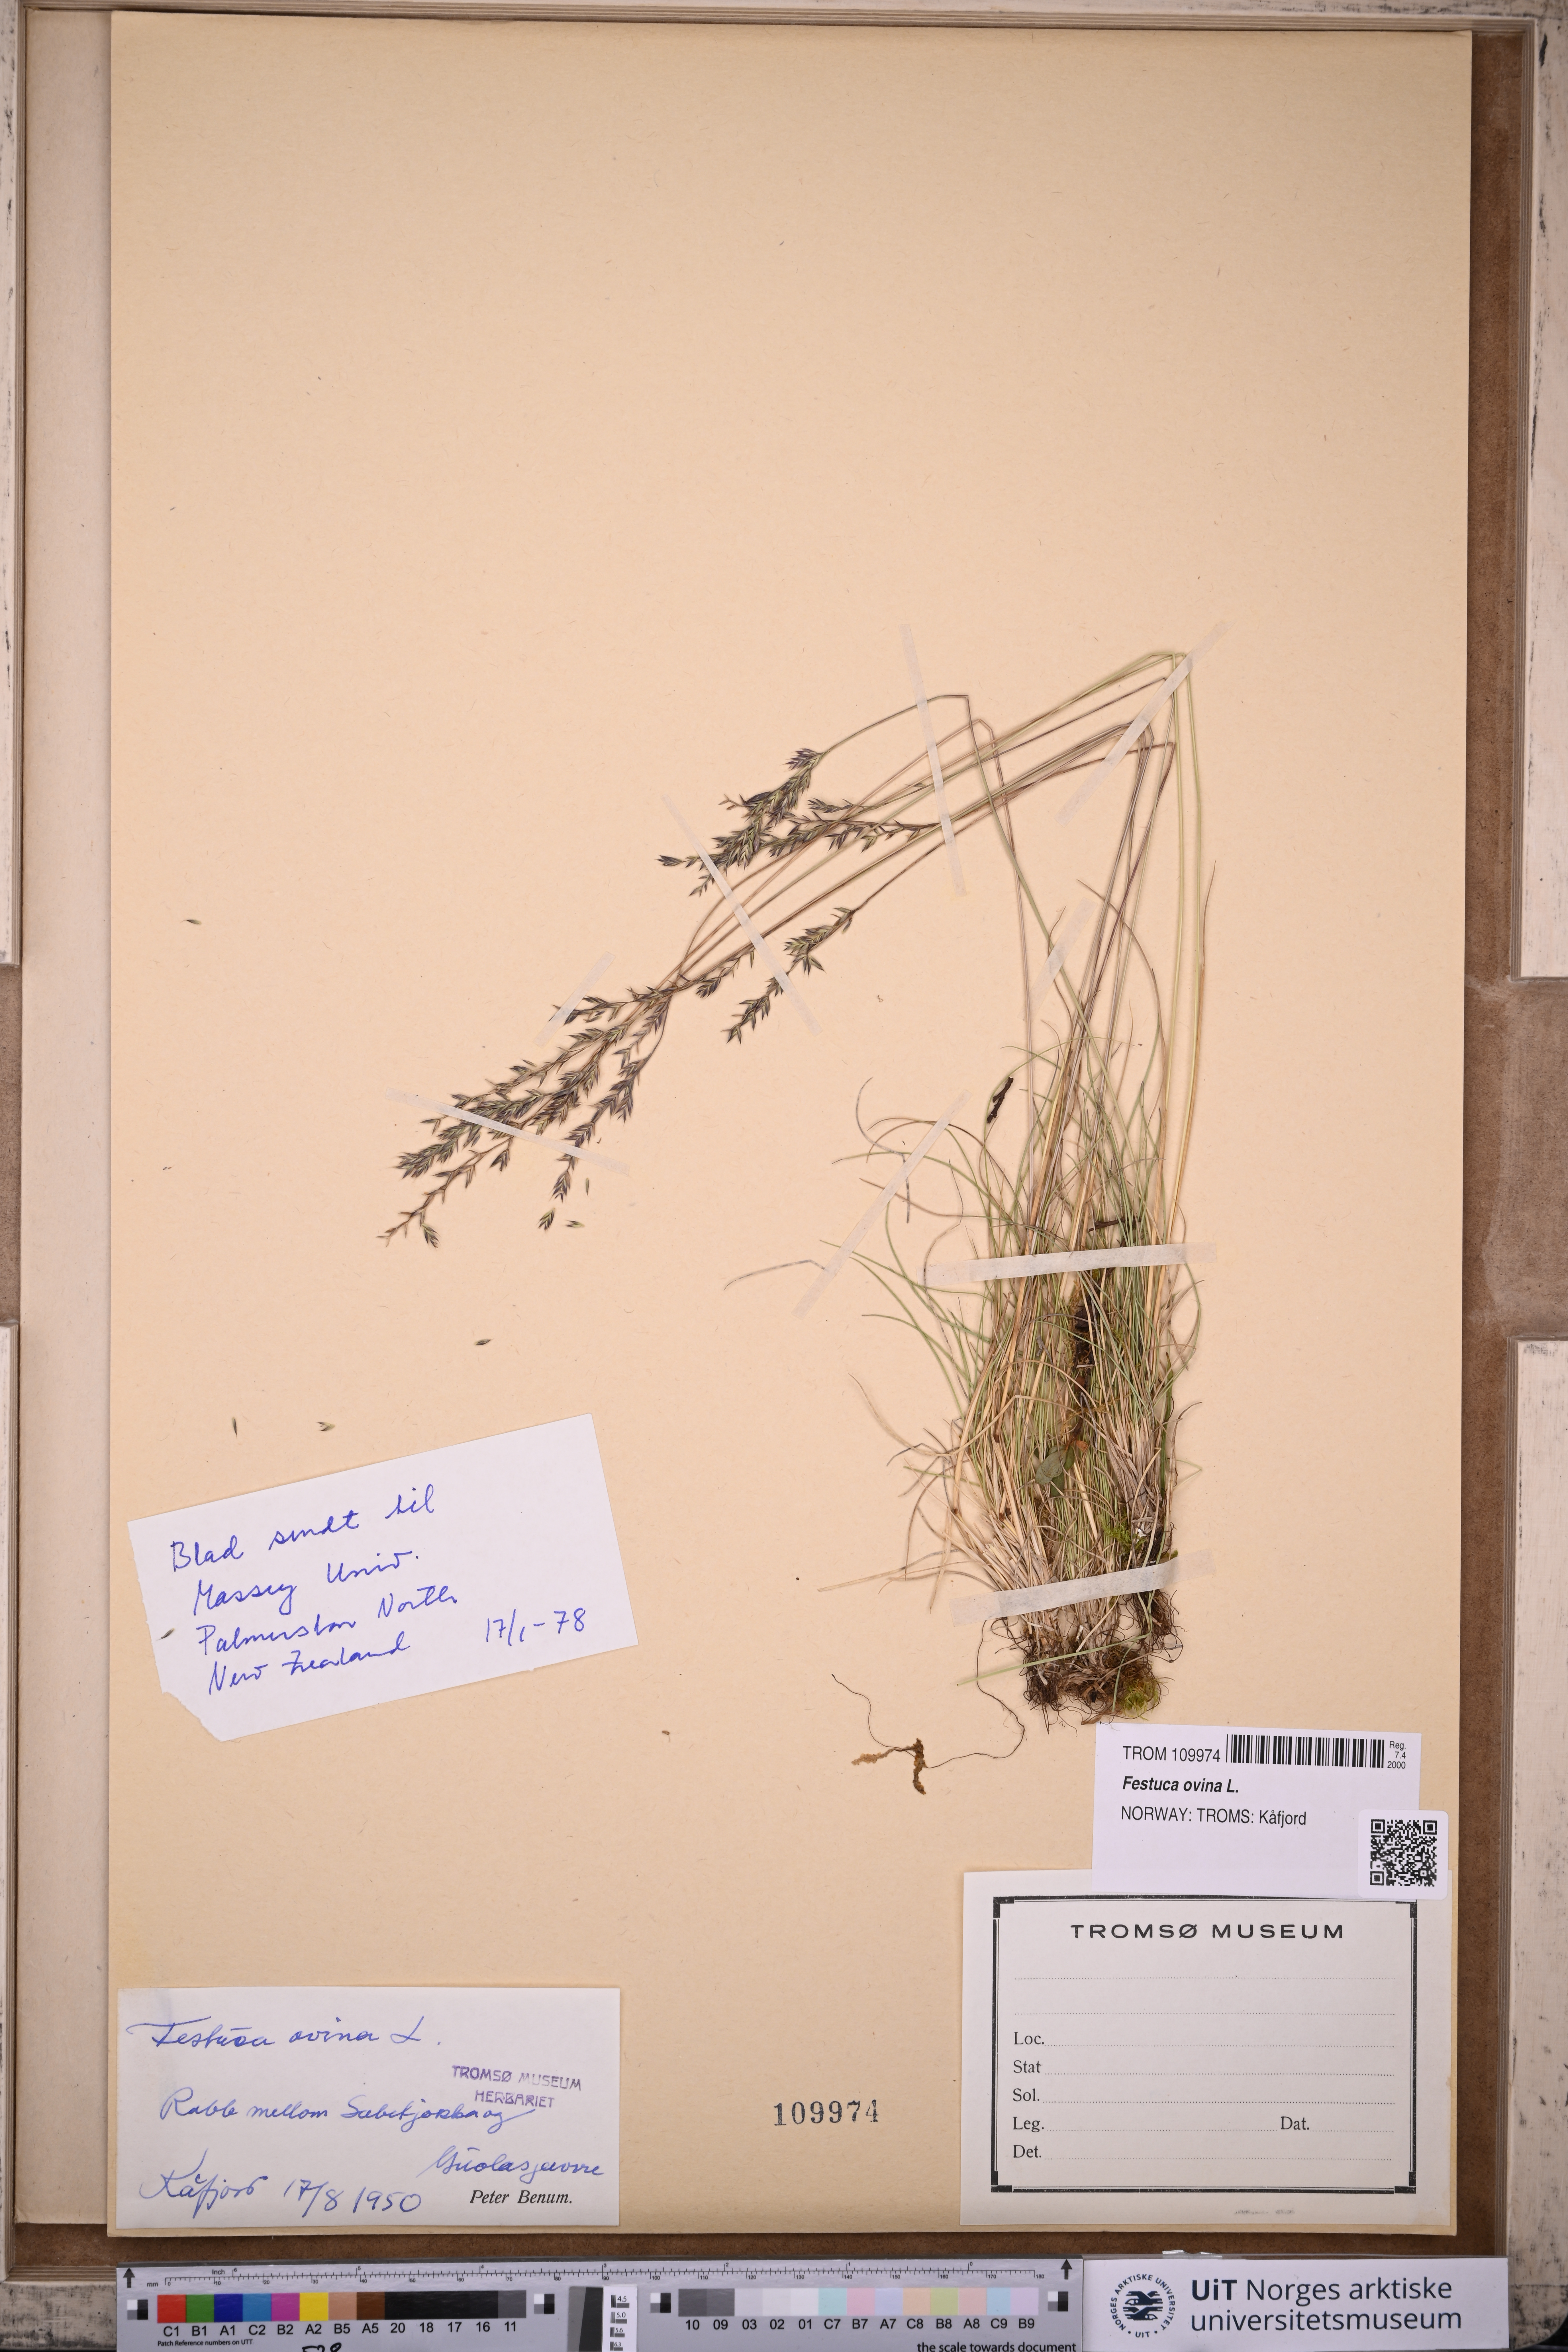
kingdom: Plantae
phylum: Tracheophyta
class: Liliopsida
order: Poales
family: Poaceae
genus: Festuca
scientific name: Festuca ovina
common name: Sheep fescue
